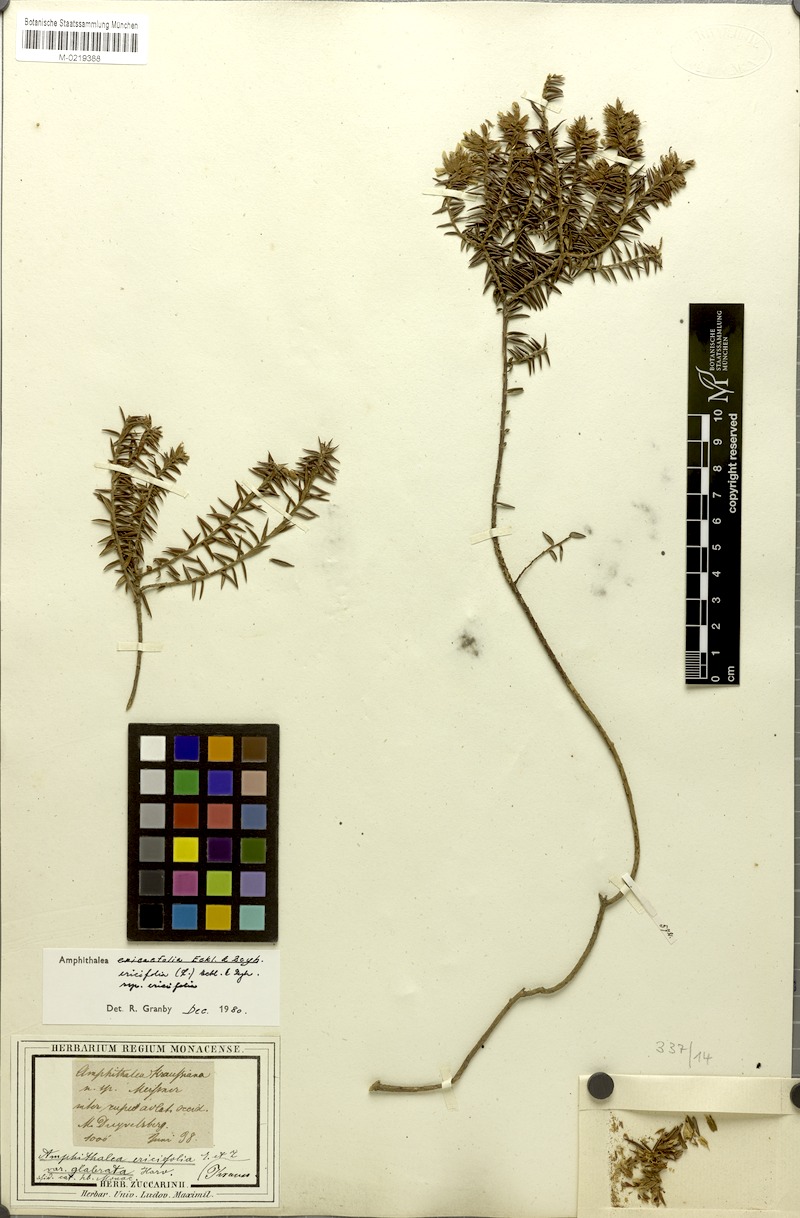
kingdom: Plantae
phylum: Tracheophyta
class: Magnoliopsida
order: Fabales
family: Fabaceae
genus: Amphithalea
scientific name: Amphithalea ericifolia
